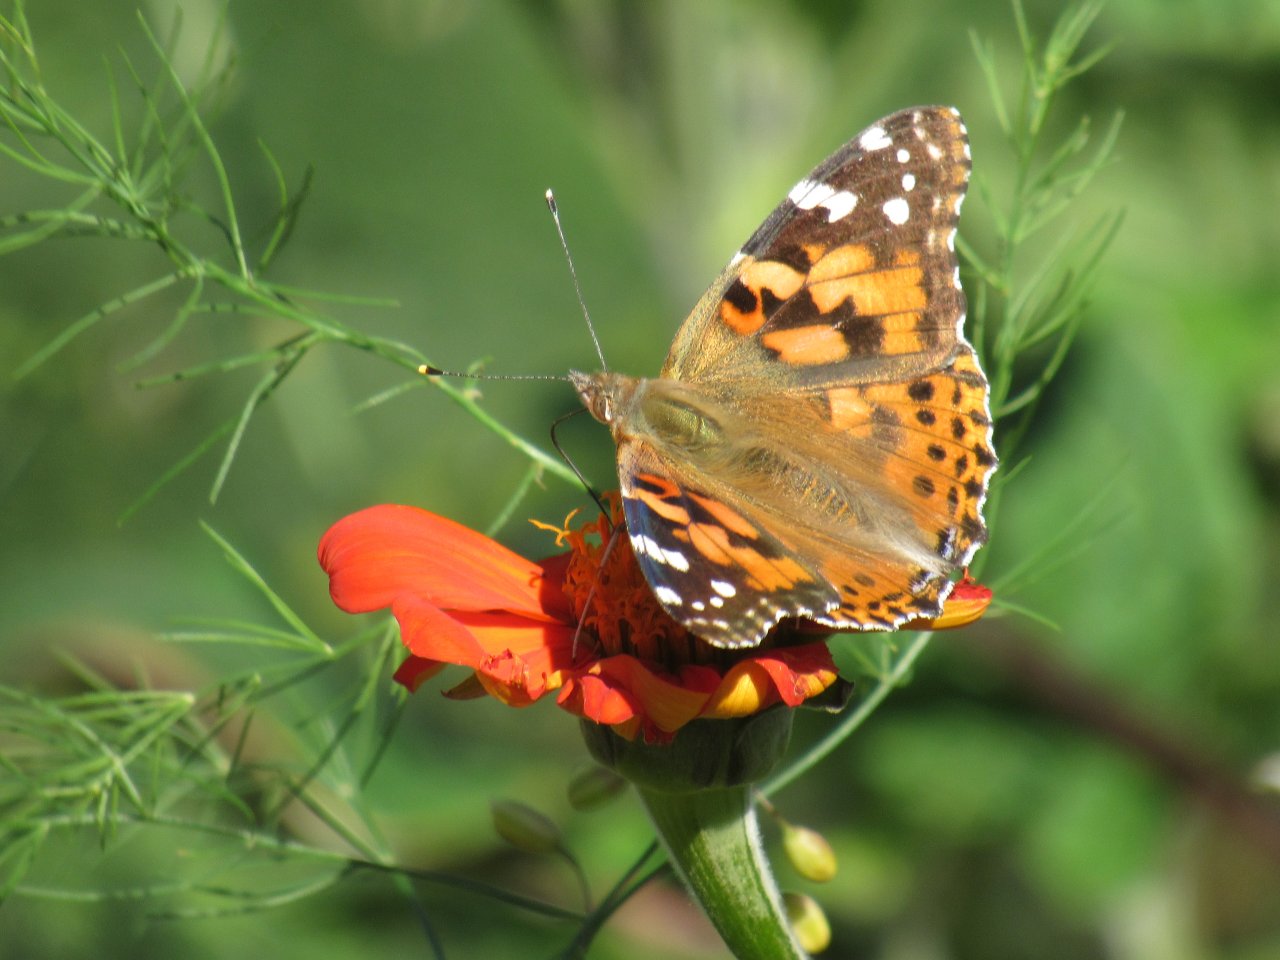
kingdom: Animalia
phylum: Arthropoda
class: Insecta
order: Lepidoptera
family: Nymphalidae
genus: Vanessa
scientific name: Vanessa cardui
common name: Painted Lady
